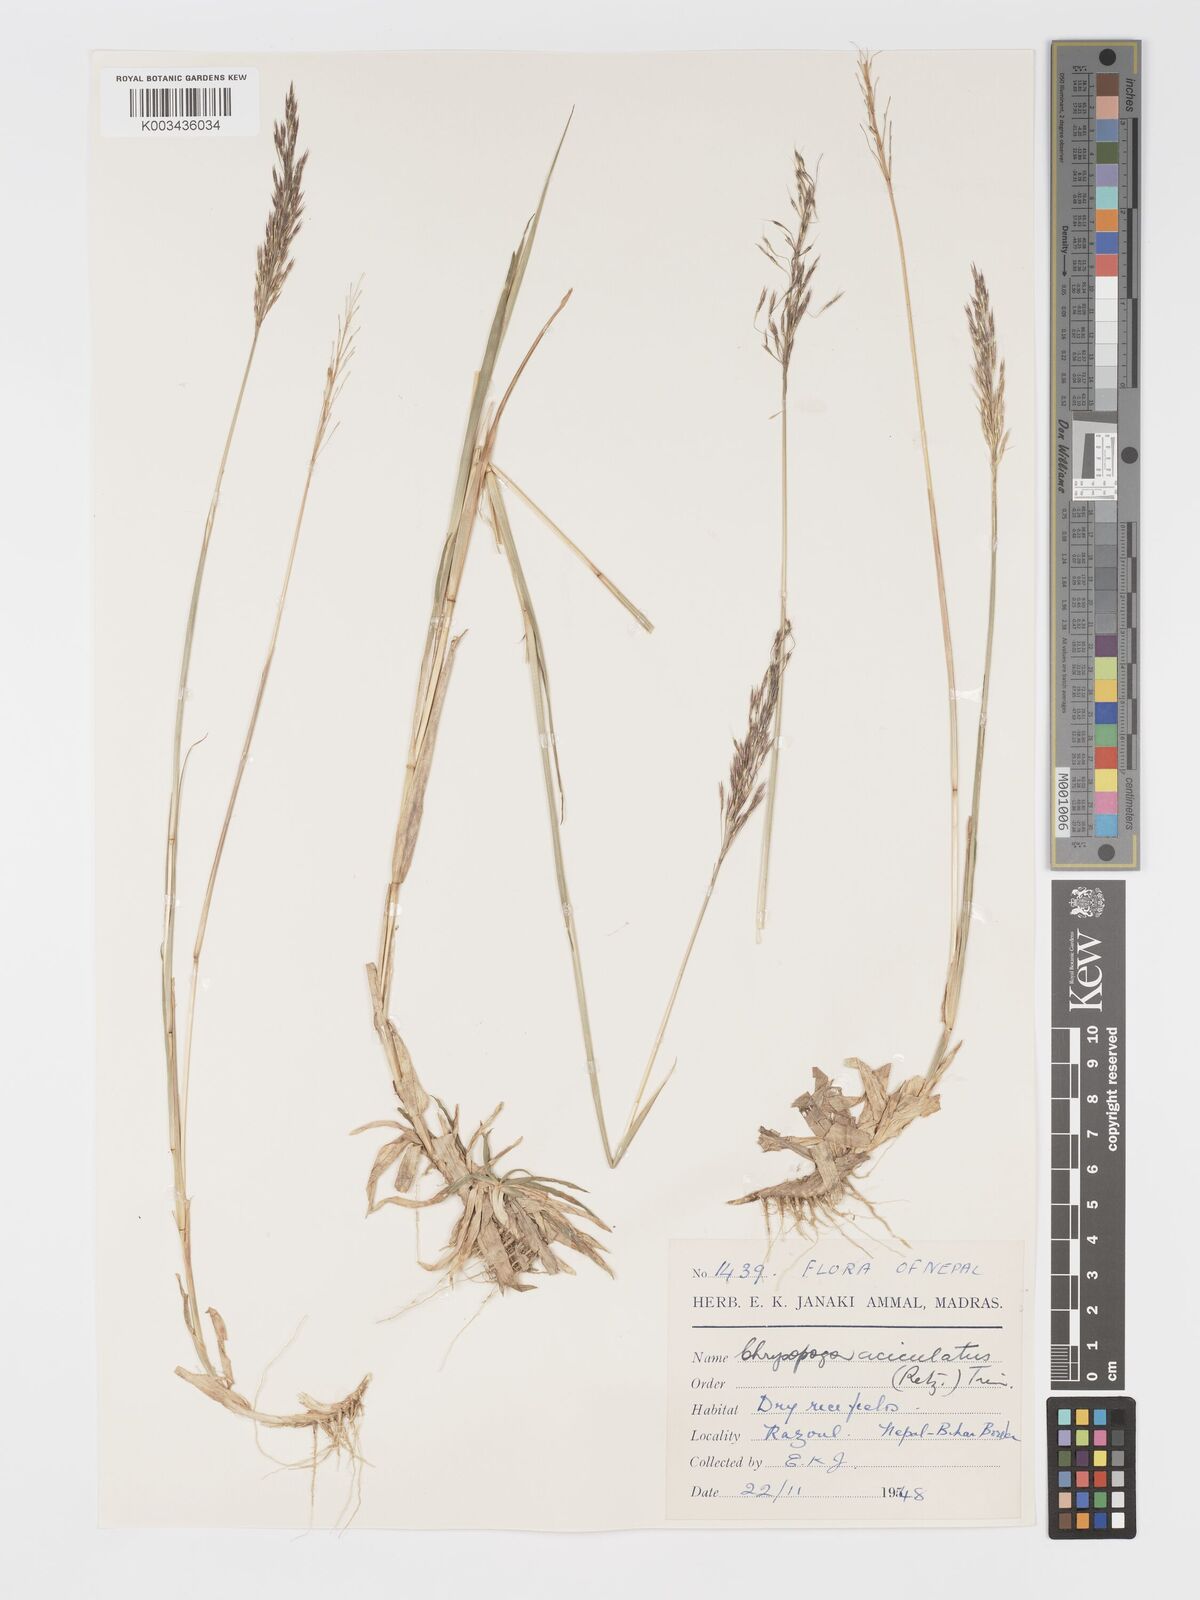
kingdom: Plantae
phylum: Tracheophyta
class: Liliopsida
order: Poales
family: Poaceae
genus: Chrysopogon
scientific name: Chrysopogon aciculatus
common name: Pilipiliula
